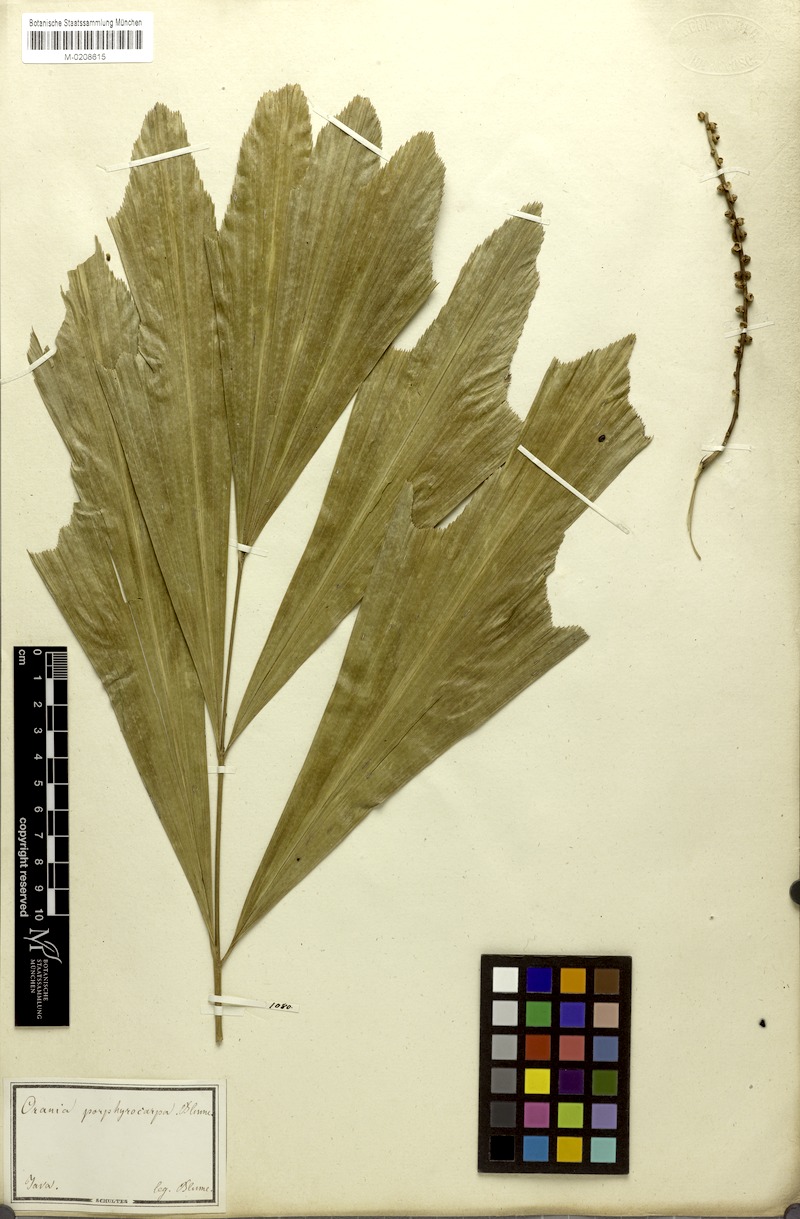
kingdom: Plantae
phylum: Tracheophyta
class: Liliopsida
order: Arecales
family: Arecaceae
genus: Arenga
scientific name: Arenga porphyrocarpa
